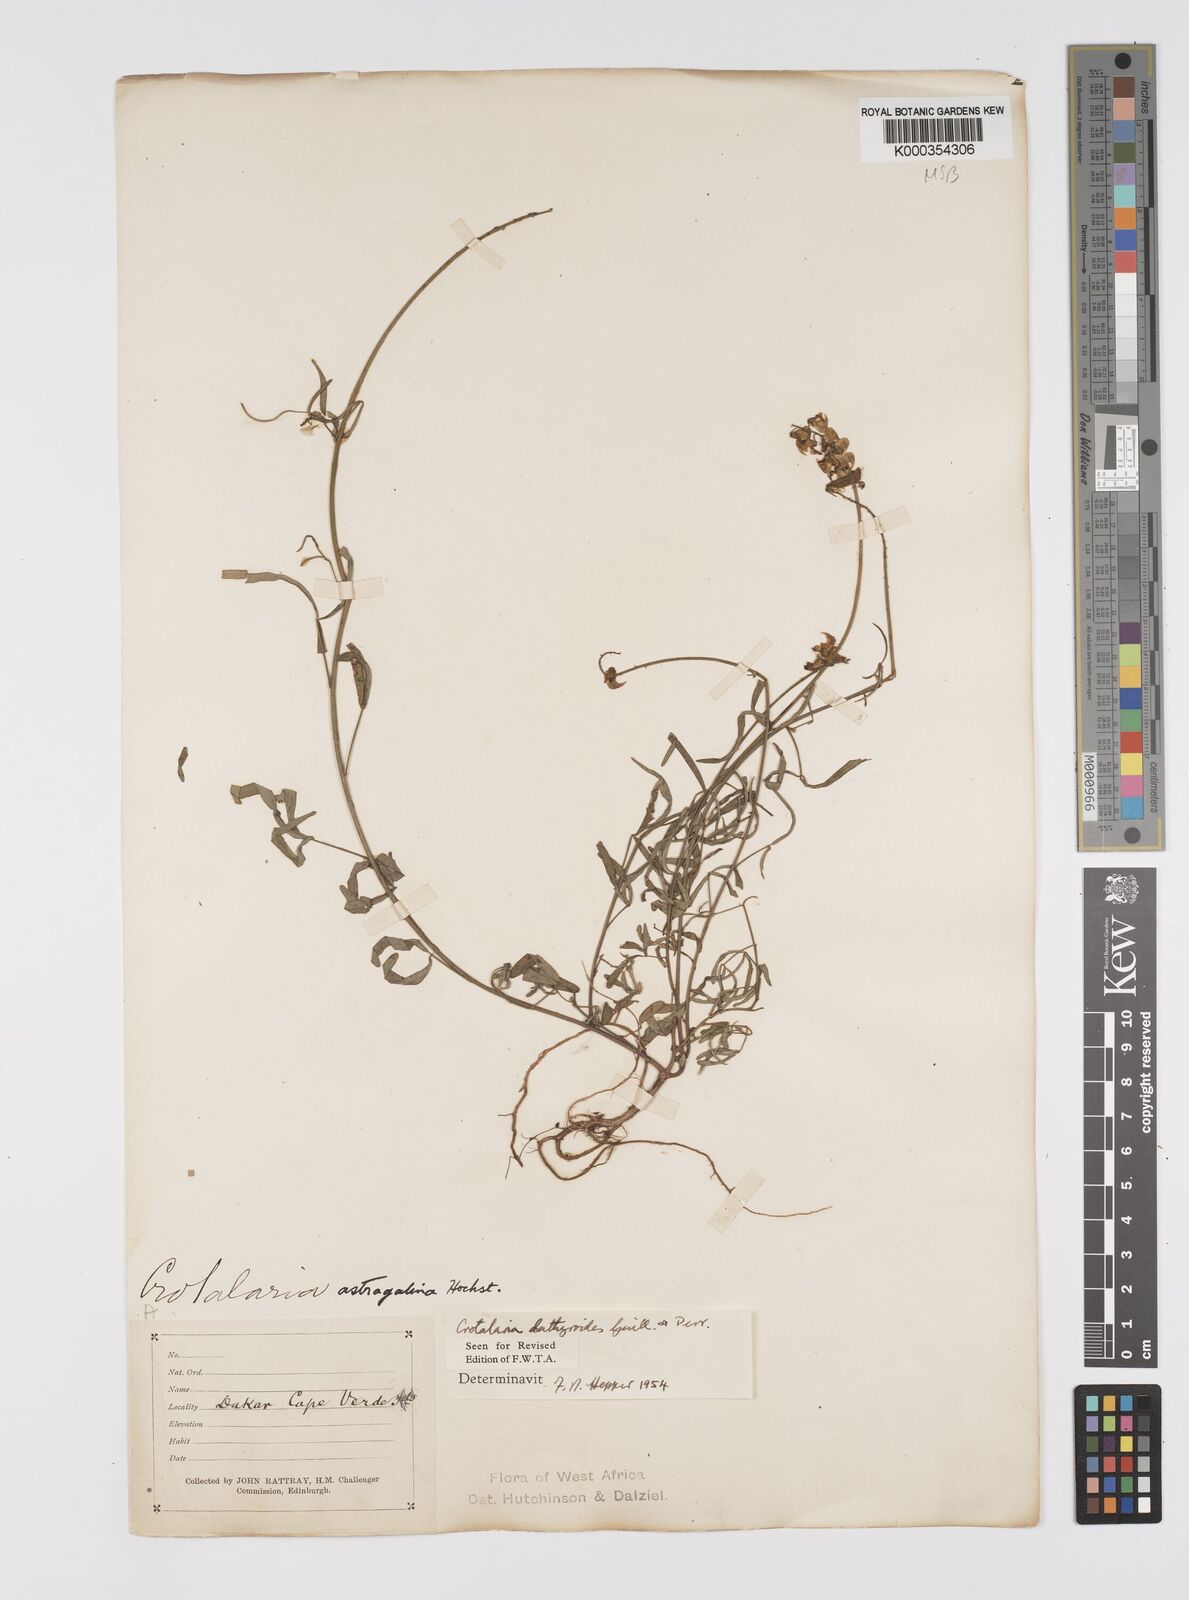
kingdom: Plantae
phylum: Tracheophyta
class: Magnoliopsida
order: Fabales
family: Fabaceae
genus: Crotalaria
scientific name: Crotalaria lathyroides
